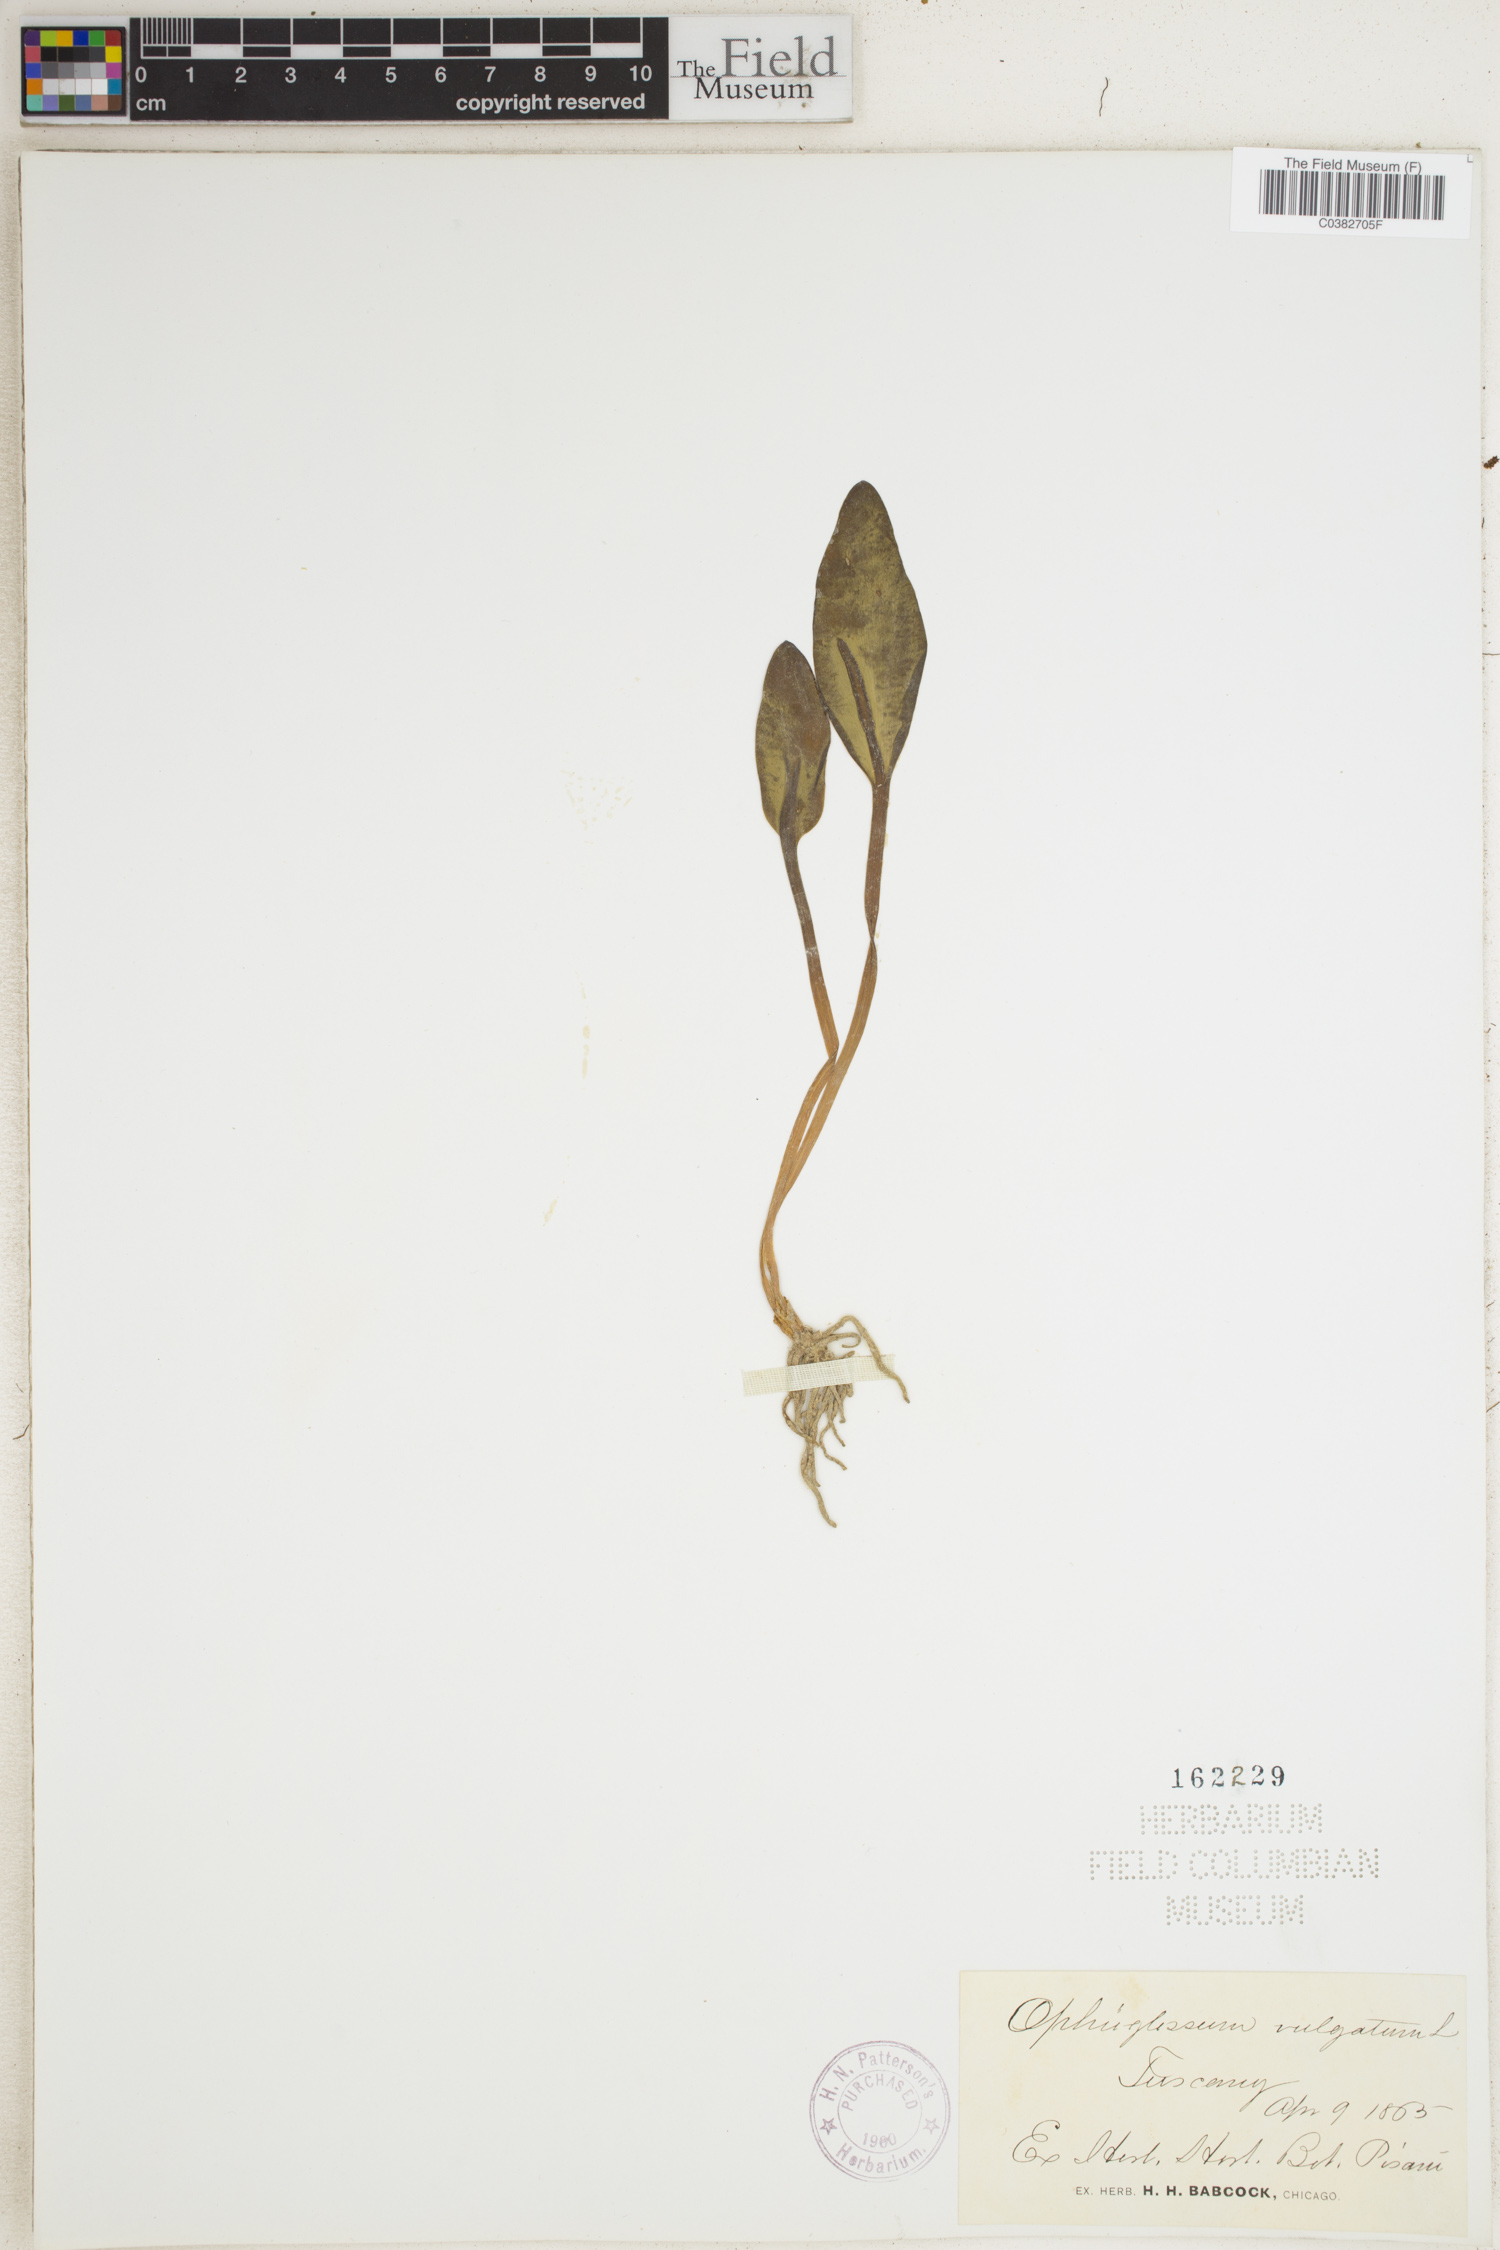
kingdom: Plantae
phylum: Tracheophyta
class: Polypodiopsida
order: Ophioglossales
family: Ophioglossaceae
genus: Ophioglossum
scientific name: Ophioglossum vulgatum
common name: Adder's-tongue
